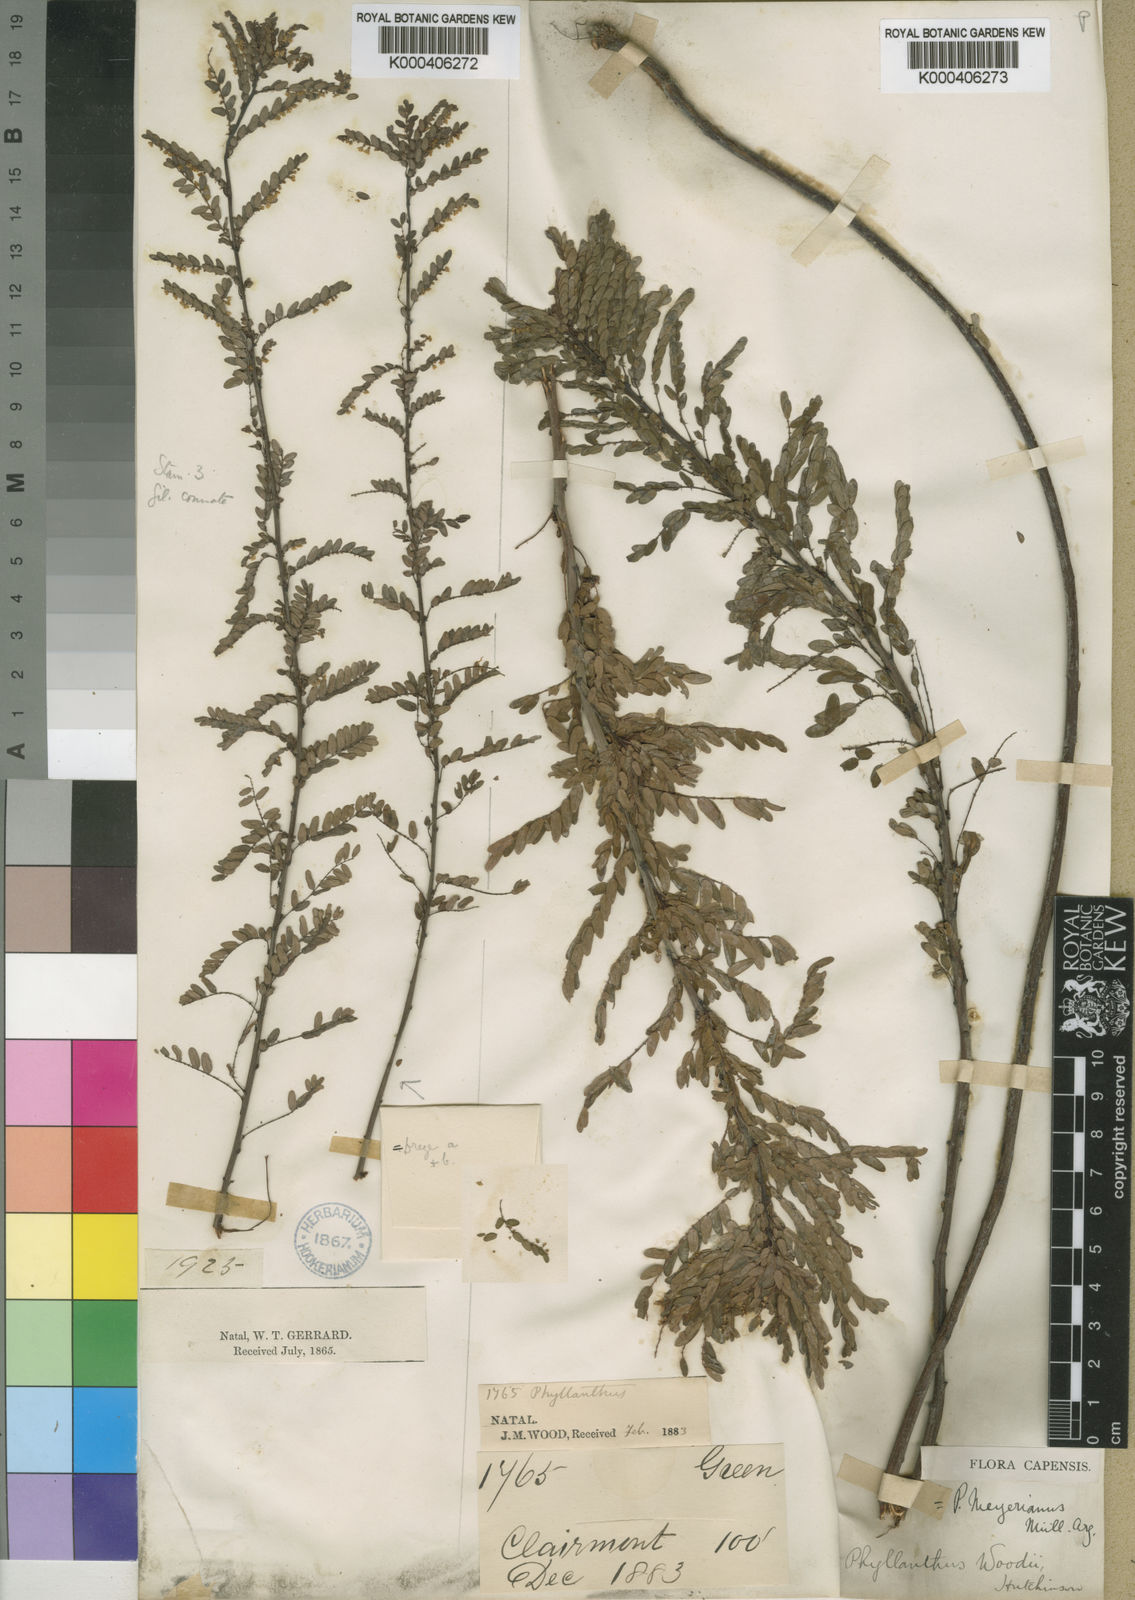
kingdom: Plantae
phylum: Tracheophyta
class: Magnoliopsida
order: Malpighiales
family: Phyllanthaceae
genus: Phyllanthus
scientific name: Phyllanthus
